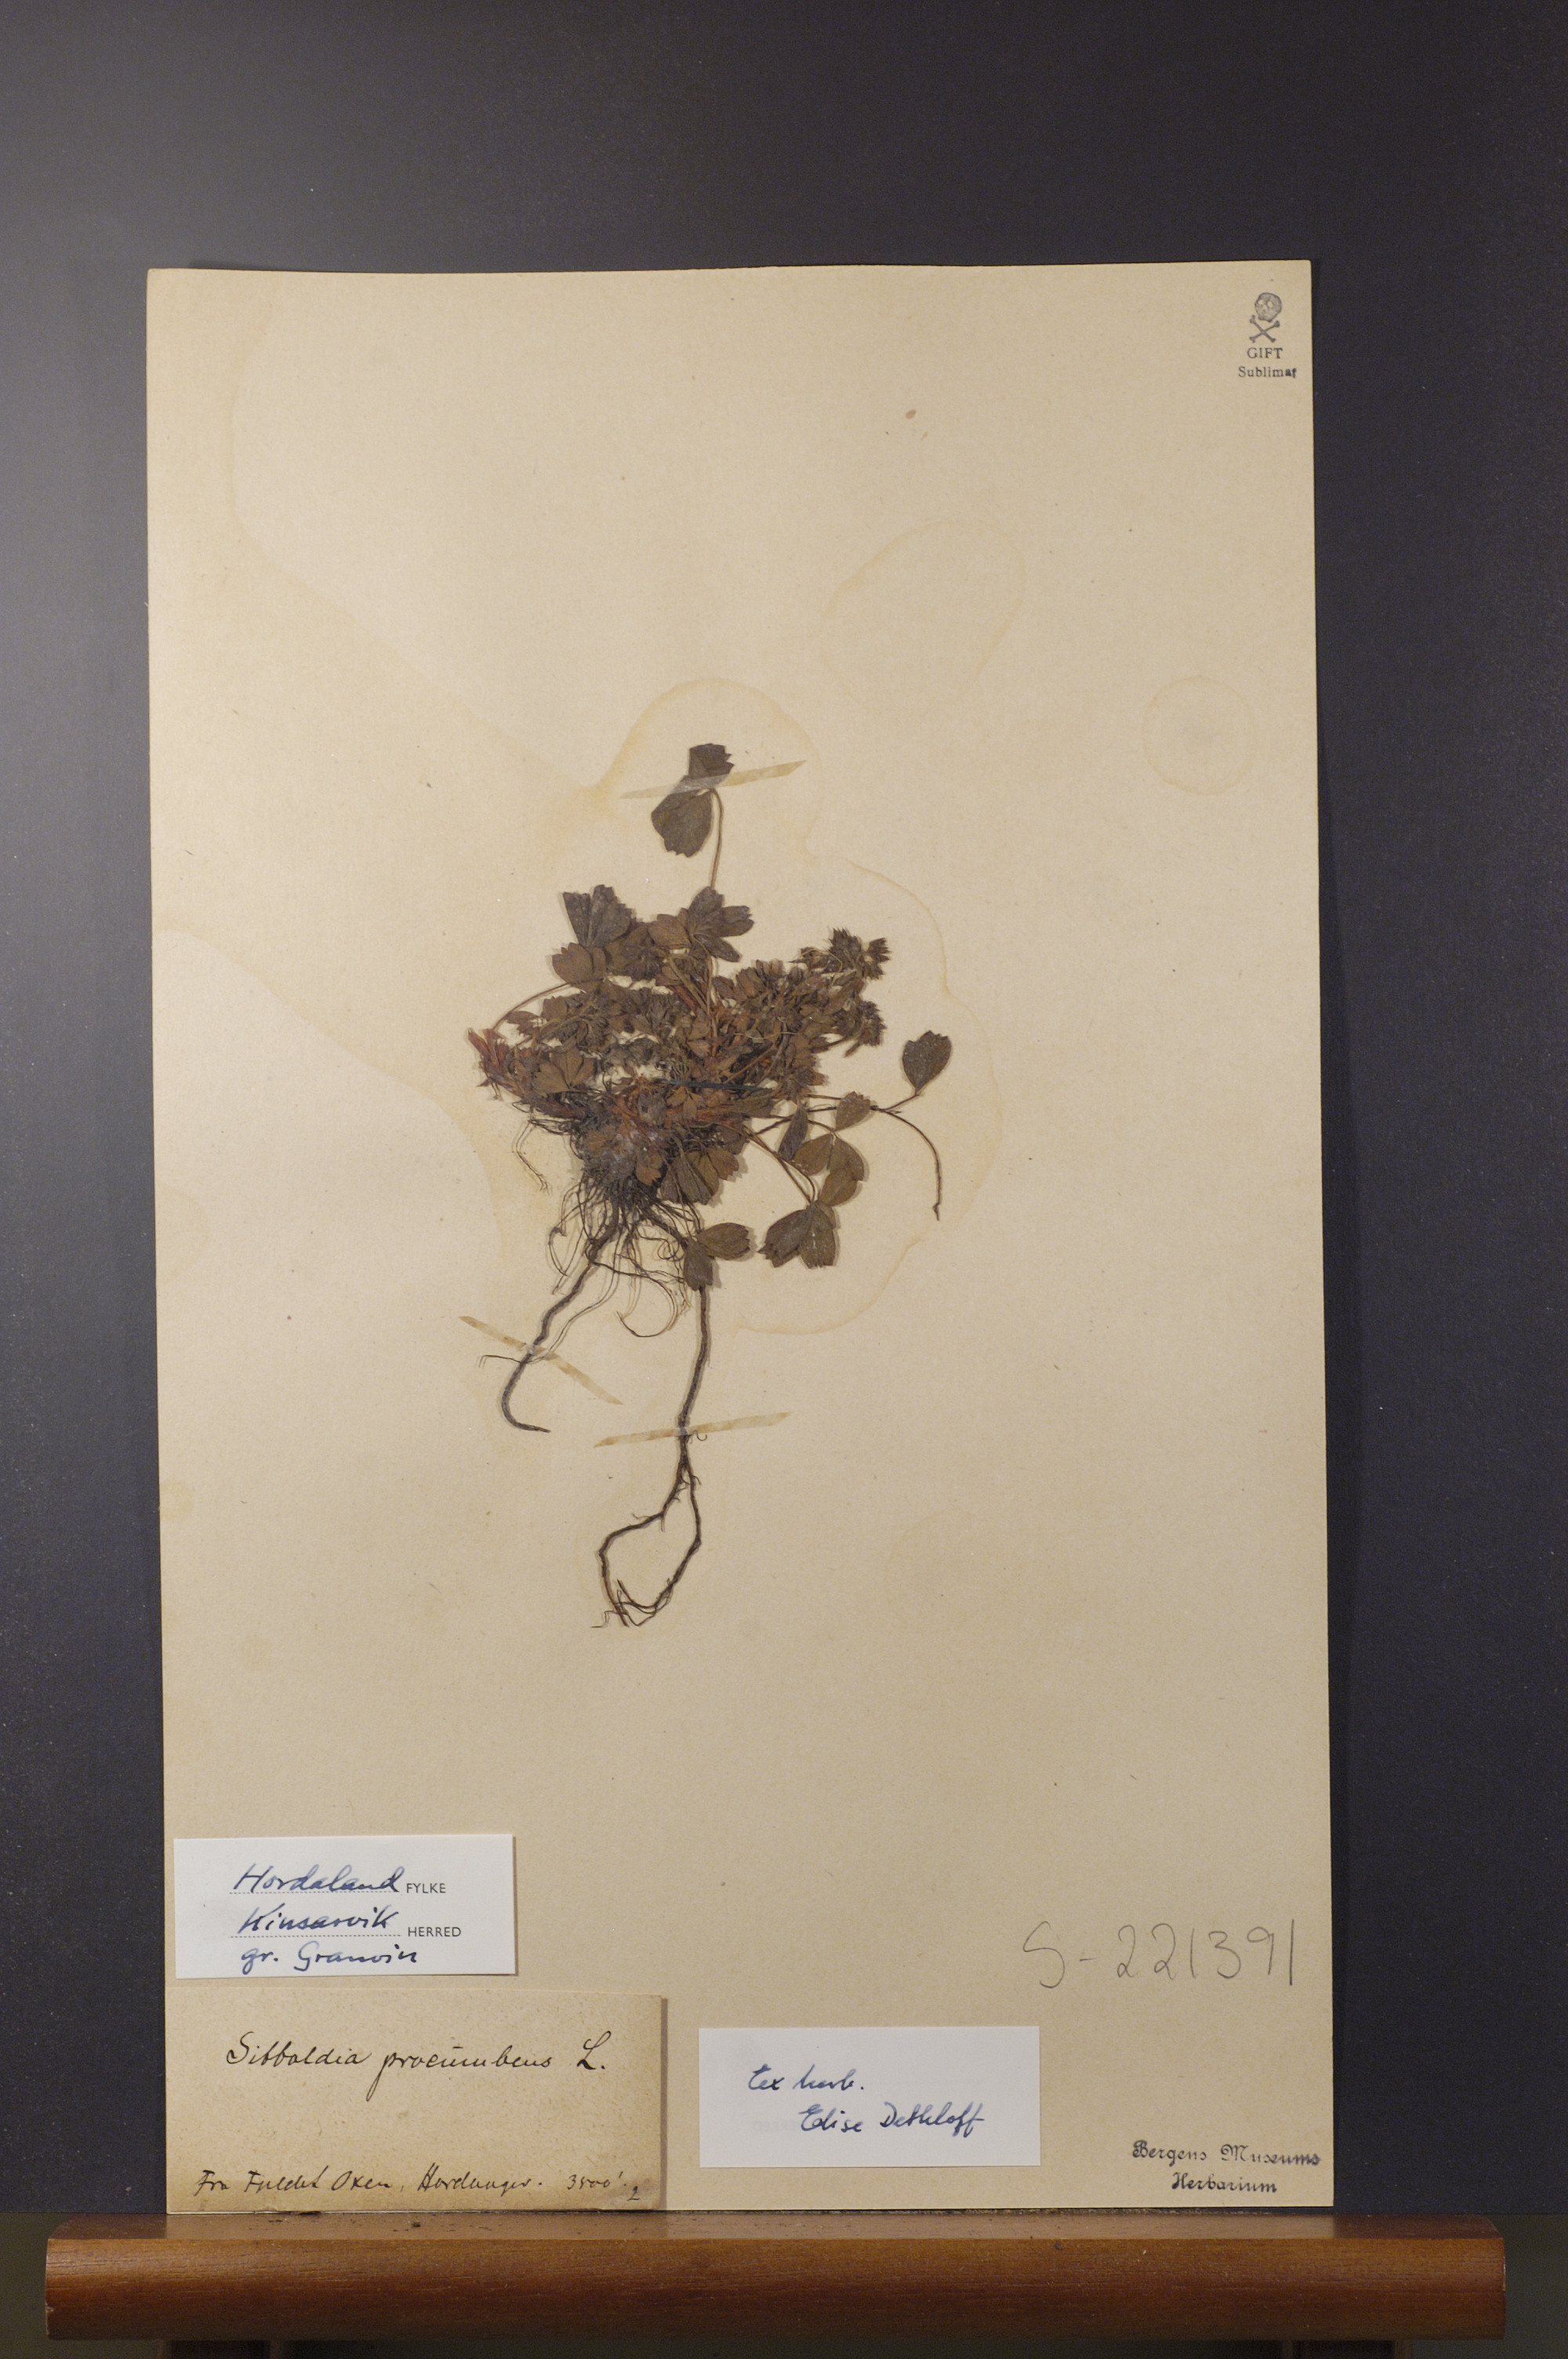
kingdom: Plantae
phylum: Tracheophyta
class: Magnoliopsida
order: Rosales
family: Rosaceae
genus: Sibbaldia
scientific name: Sibbaldia procumbens
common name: Creeping sibbaldia
